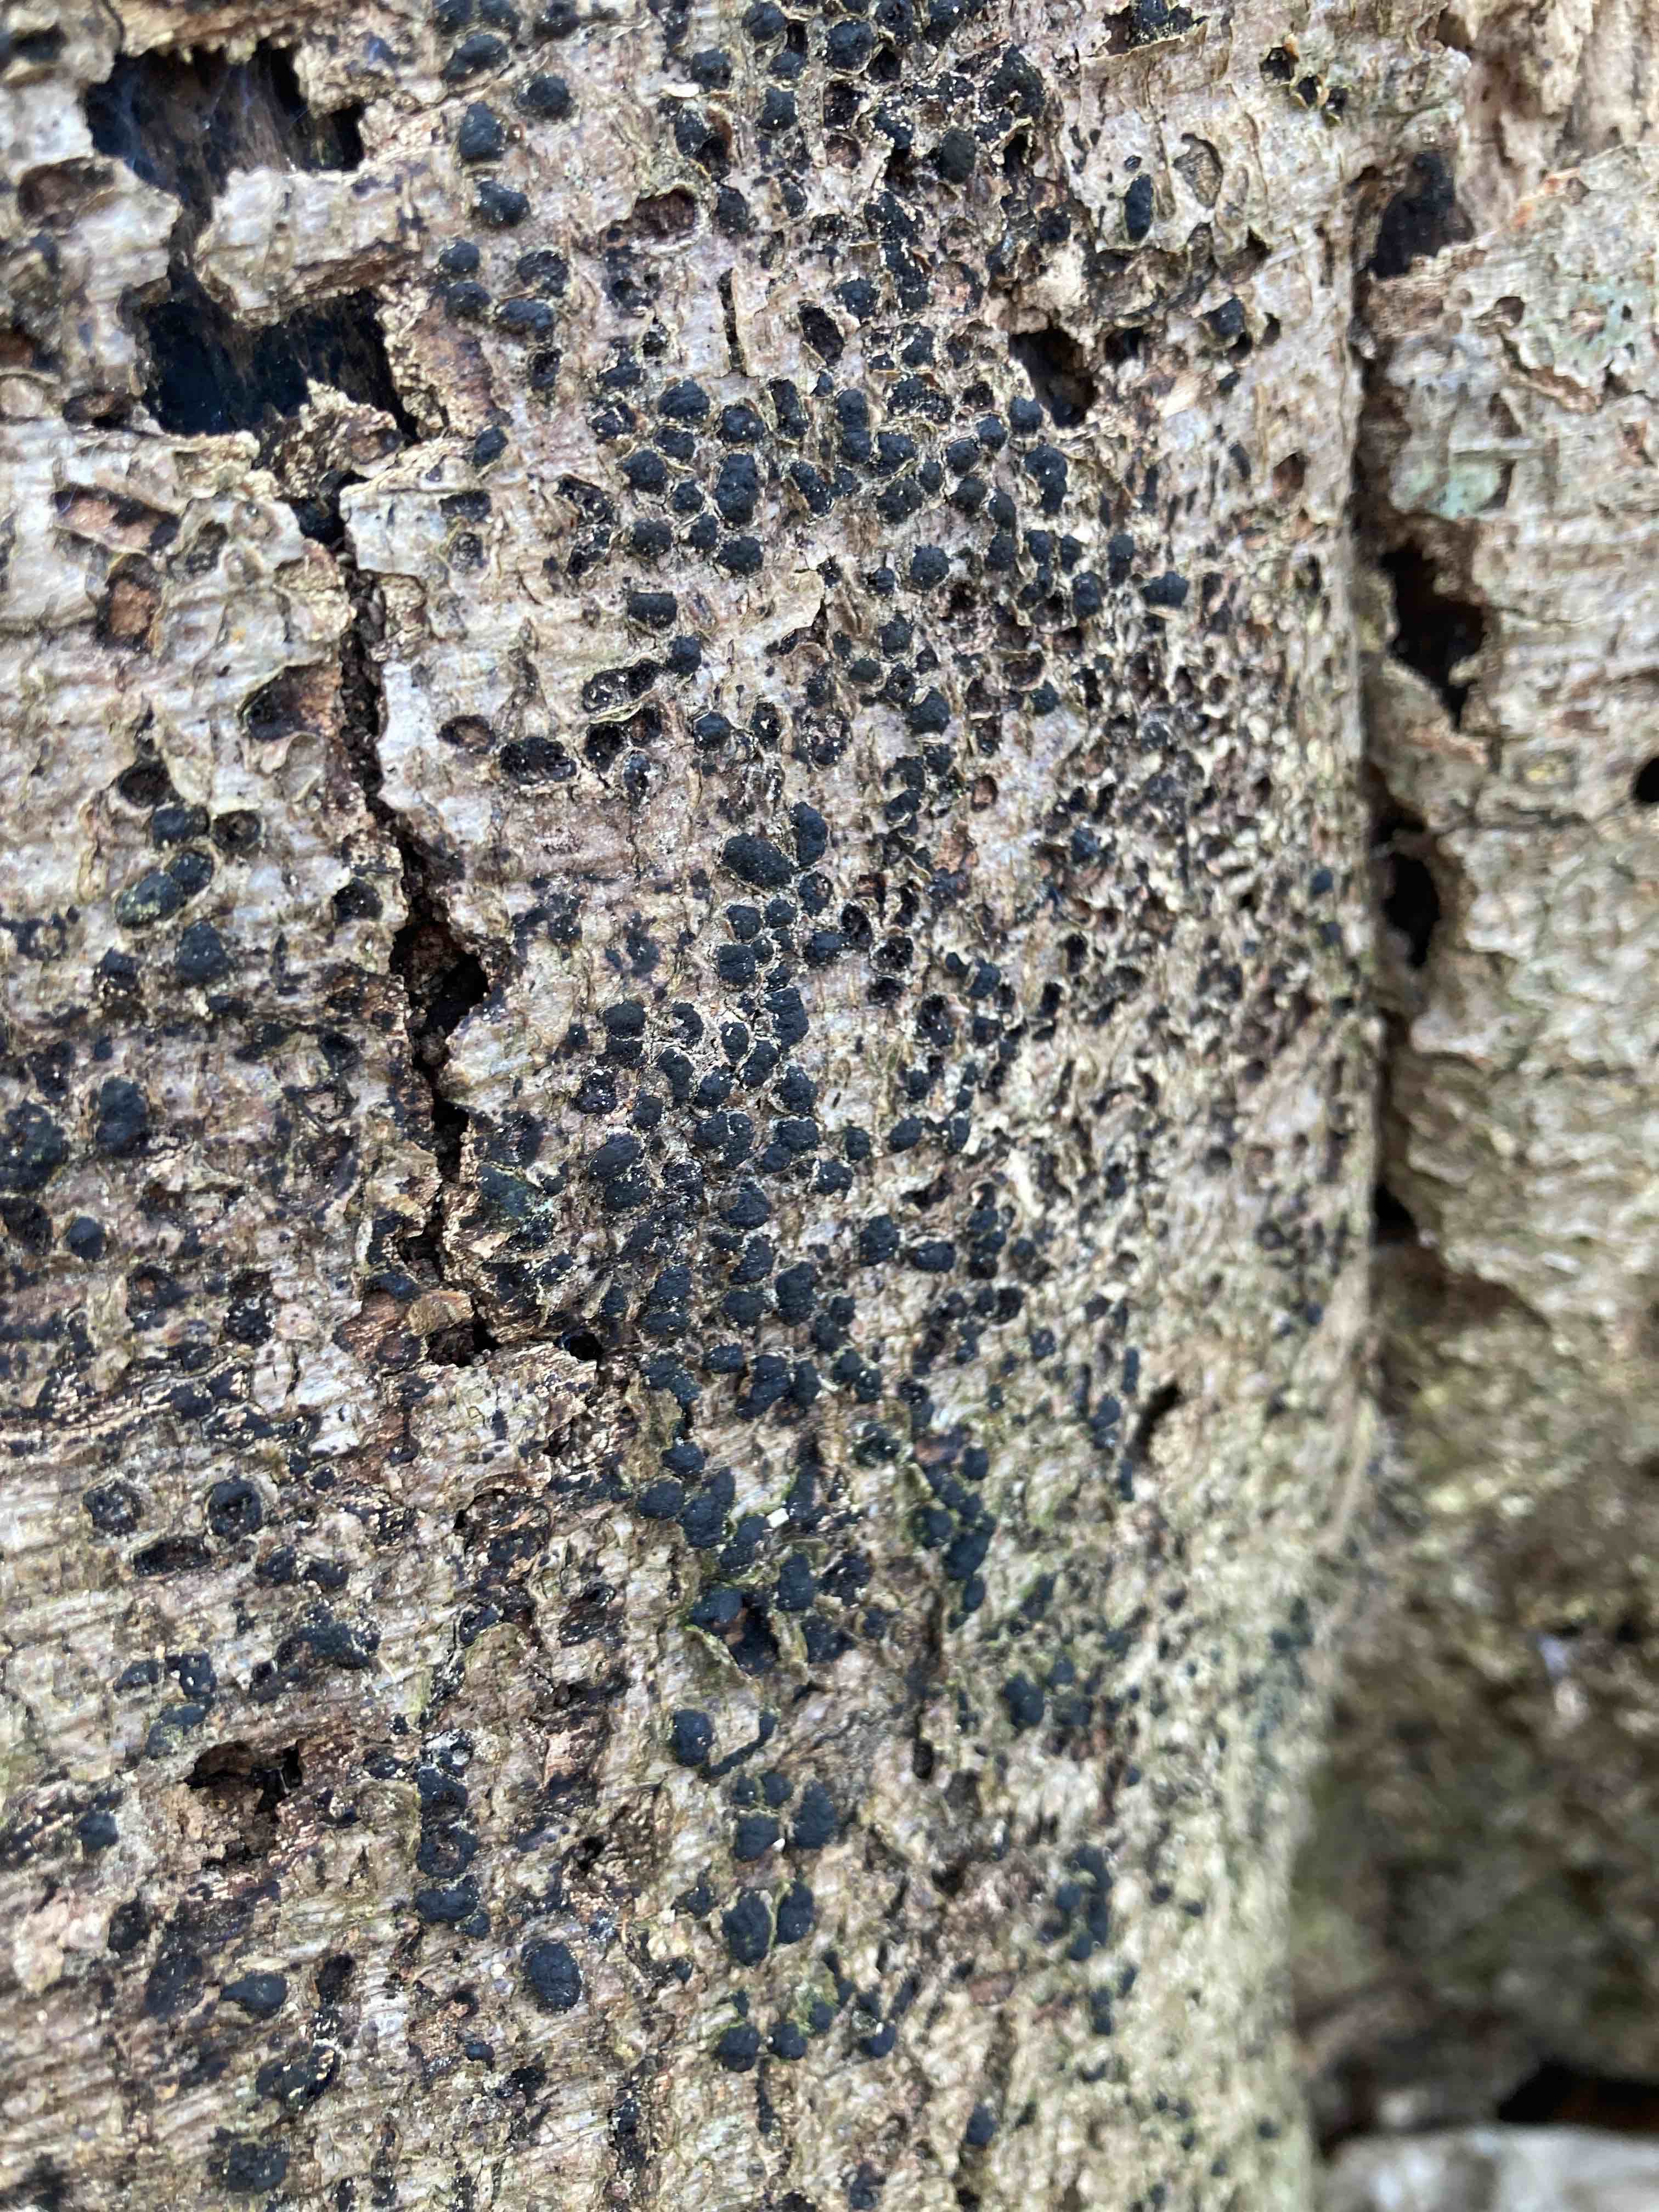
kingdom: Fungi
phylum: Ascomycota
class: Sordariomycetes
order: Xylariales
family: Melogrammataceae
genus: Melogramma
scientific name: Melogramma spiniferum
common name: bøgefod-kulhals
